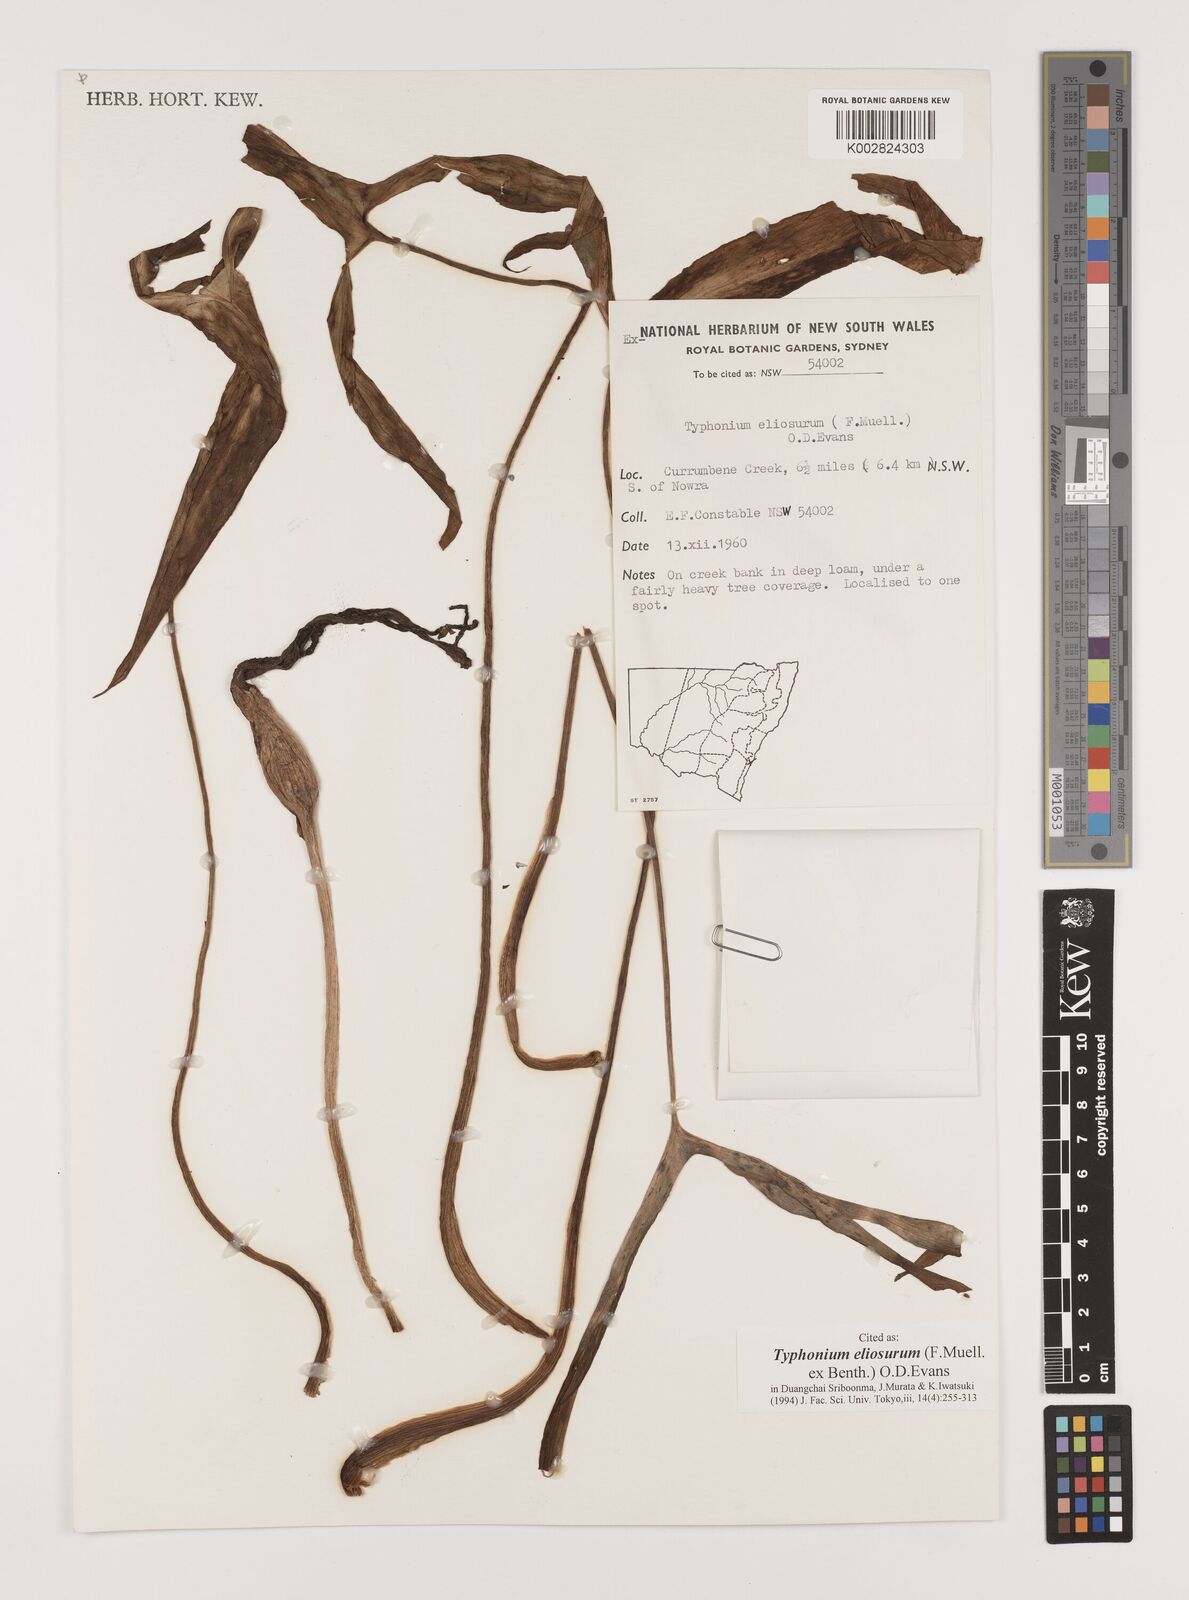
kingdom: Plantae
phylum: Tracheophyta
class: Liliopsida
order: Alismatales
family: Araceae
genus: Typhonium
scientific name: Typhonium eliosurum
